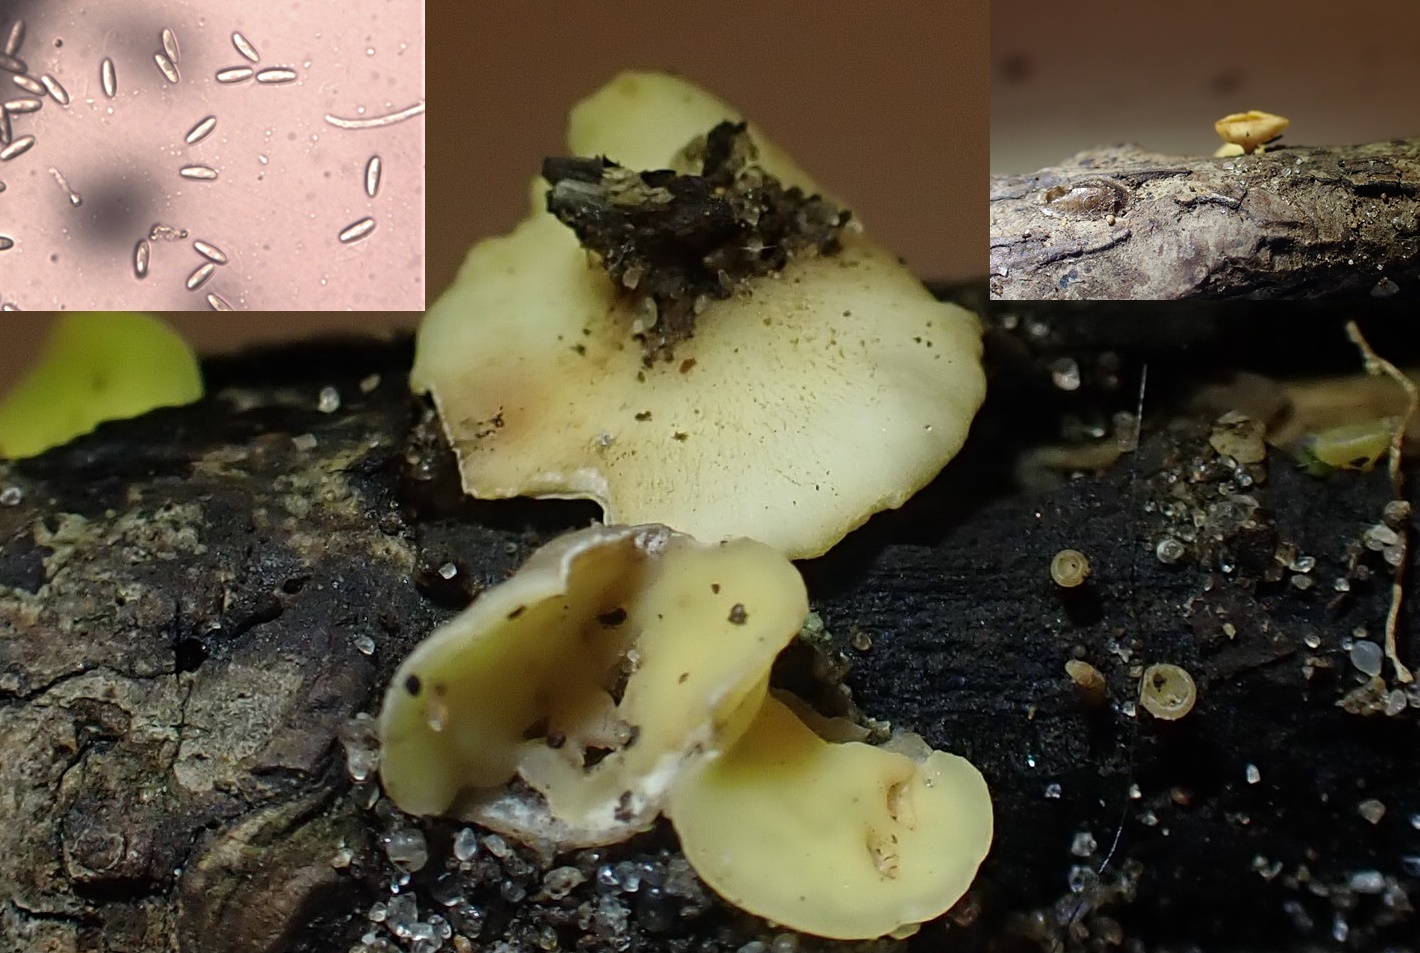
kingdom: Fungi
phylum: Ascomycota
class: Leotiomycetes
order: Helotiales
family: Helotiaceae
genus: Hymenoscyphus
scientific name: Hymenoscyphus
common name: stilkskive
